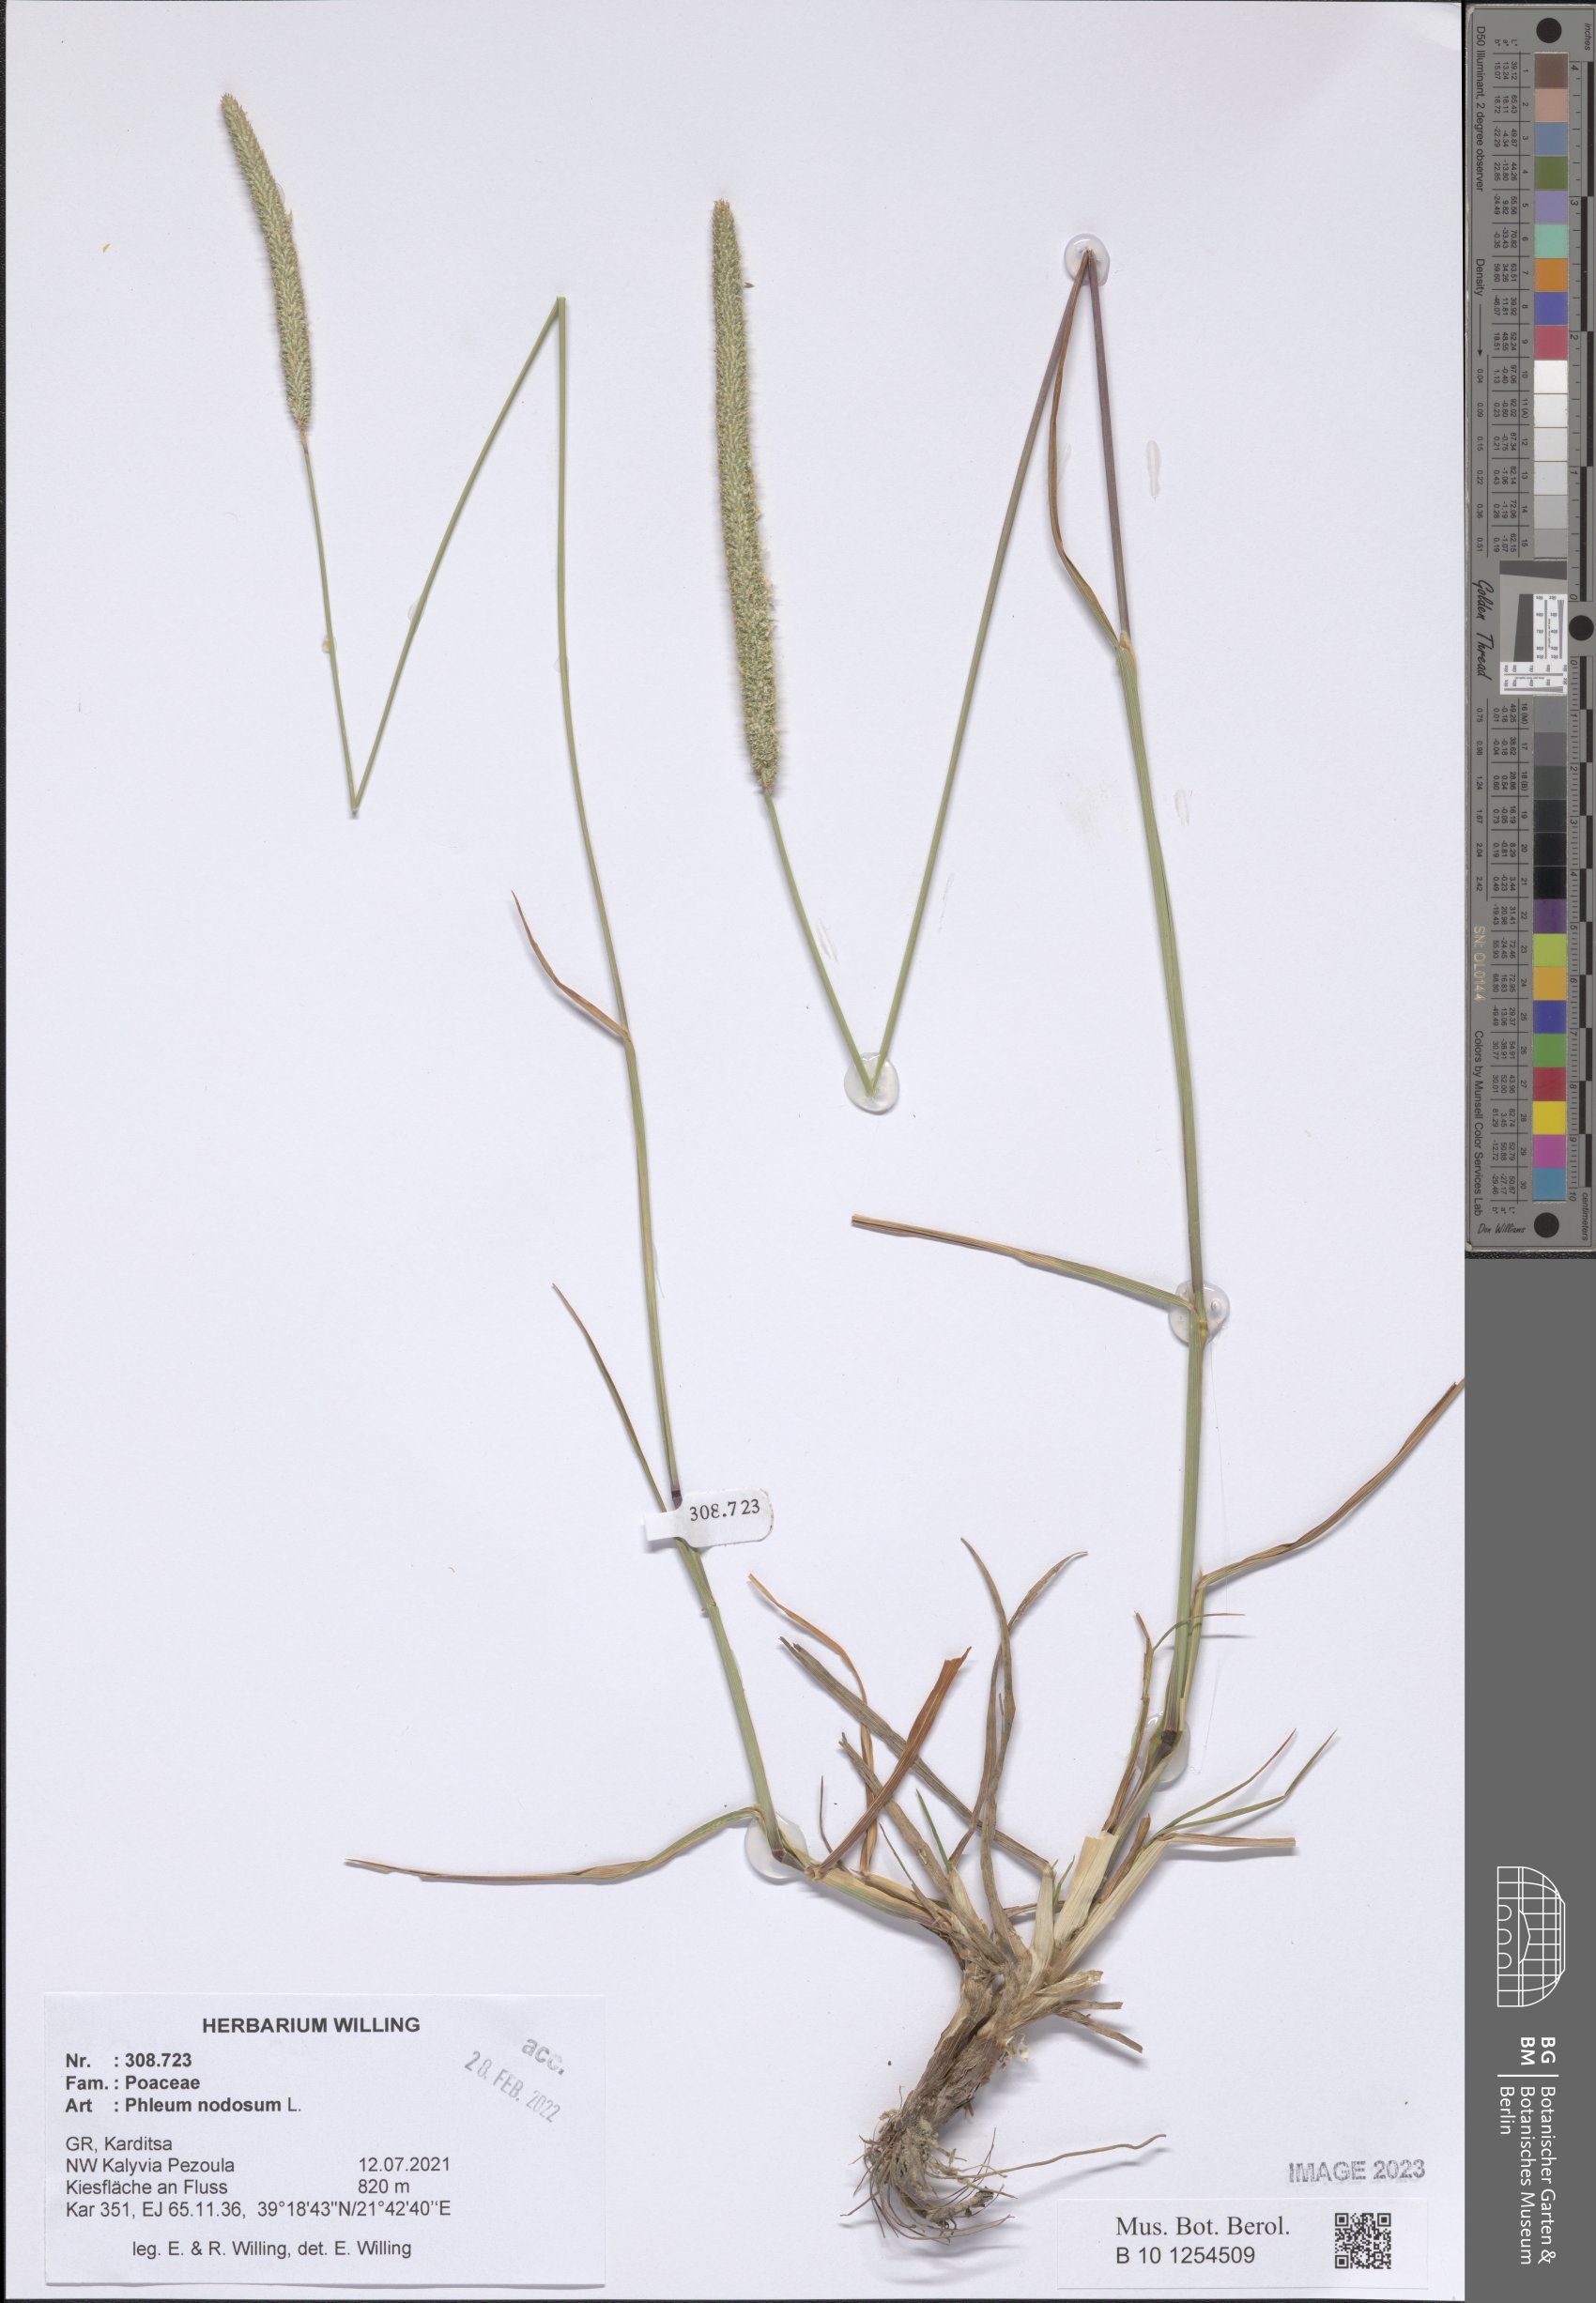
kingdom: Plantae
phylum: Tracheophyta
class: Liliopsida
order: Poales
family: Poaceae
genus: Phleum
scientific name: Phleum pratense
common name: Timothy grass
